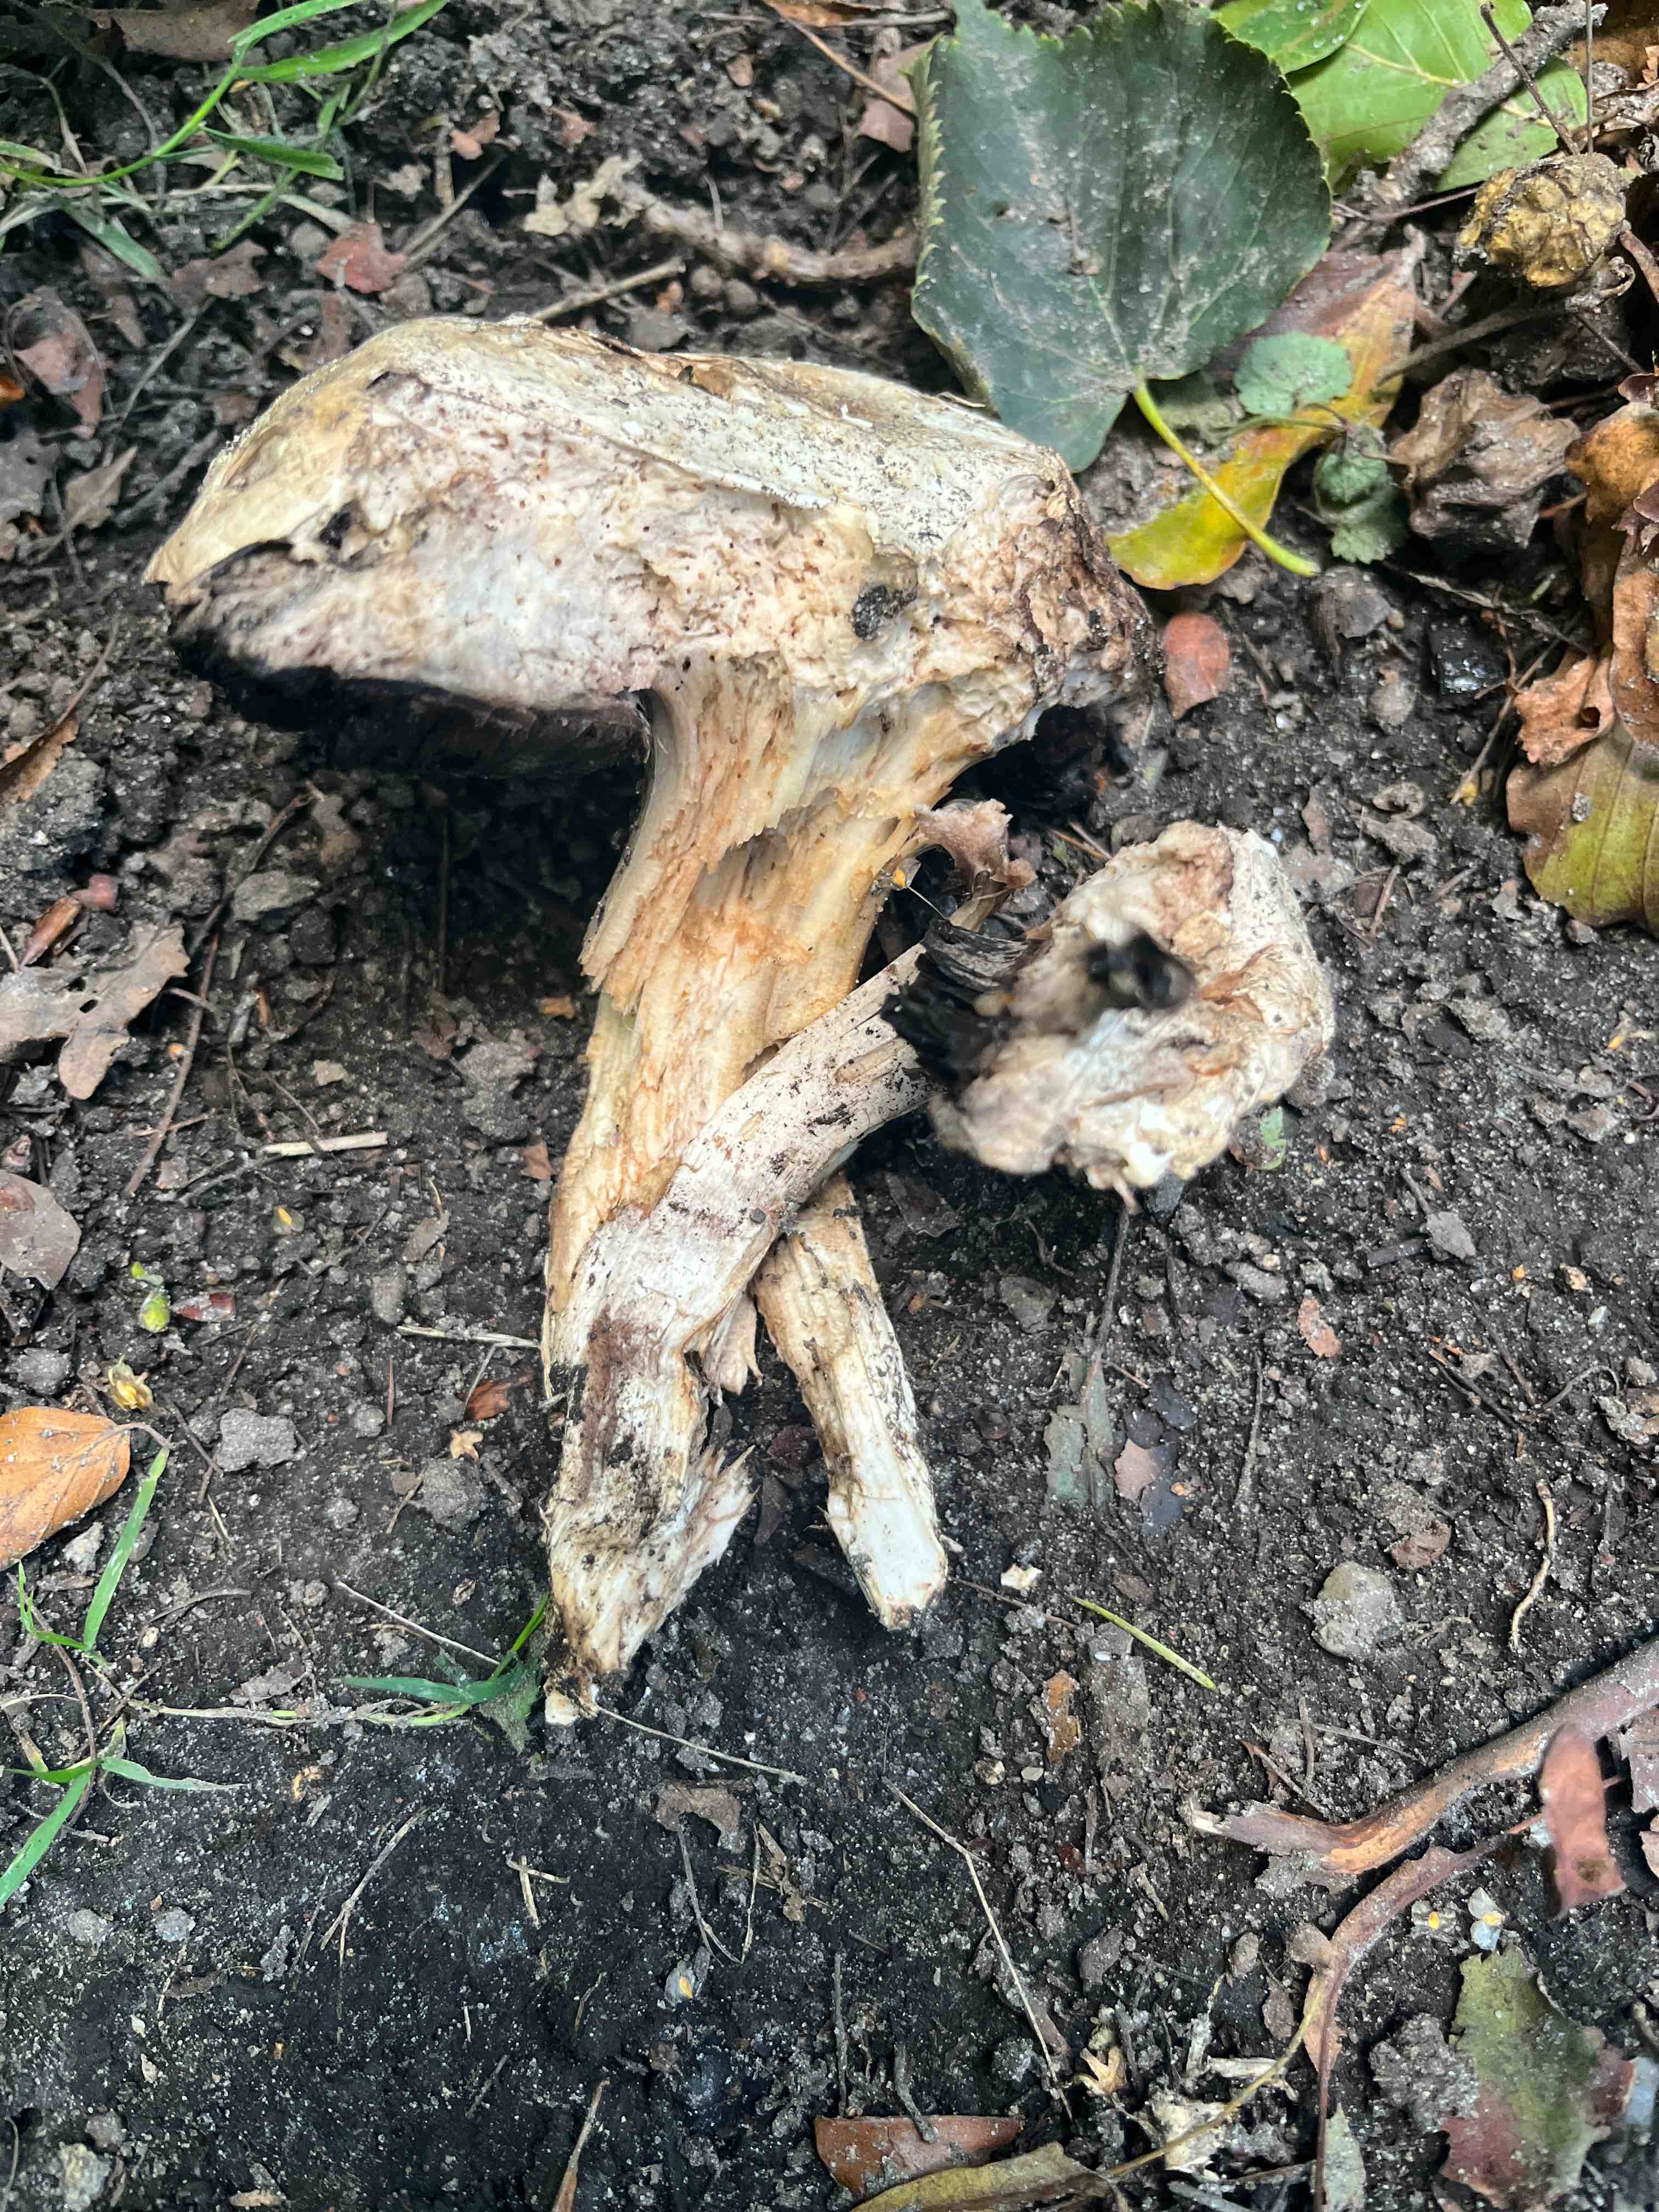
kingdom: Fungi
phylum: Basidiomycota
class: Agaricomycetes
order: Agaricales
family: Agaricaceae
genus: Agaricus
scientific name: Agaricus
